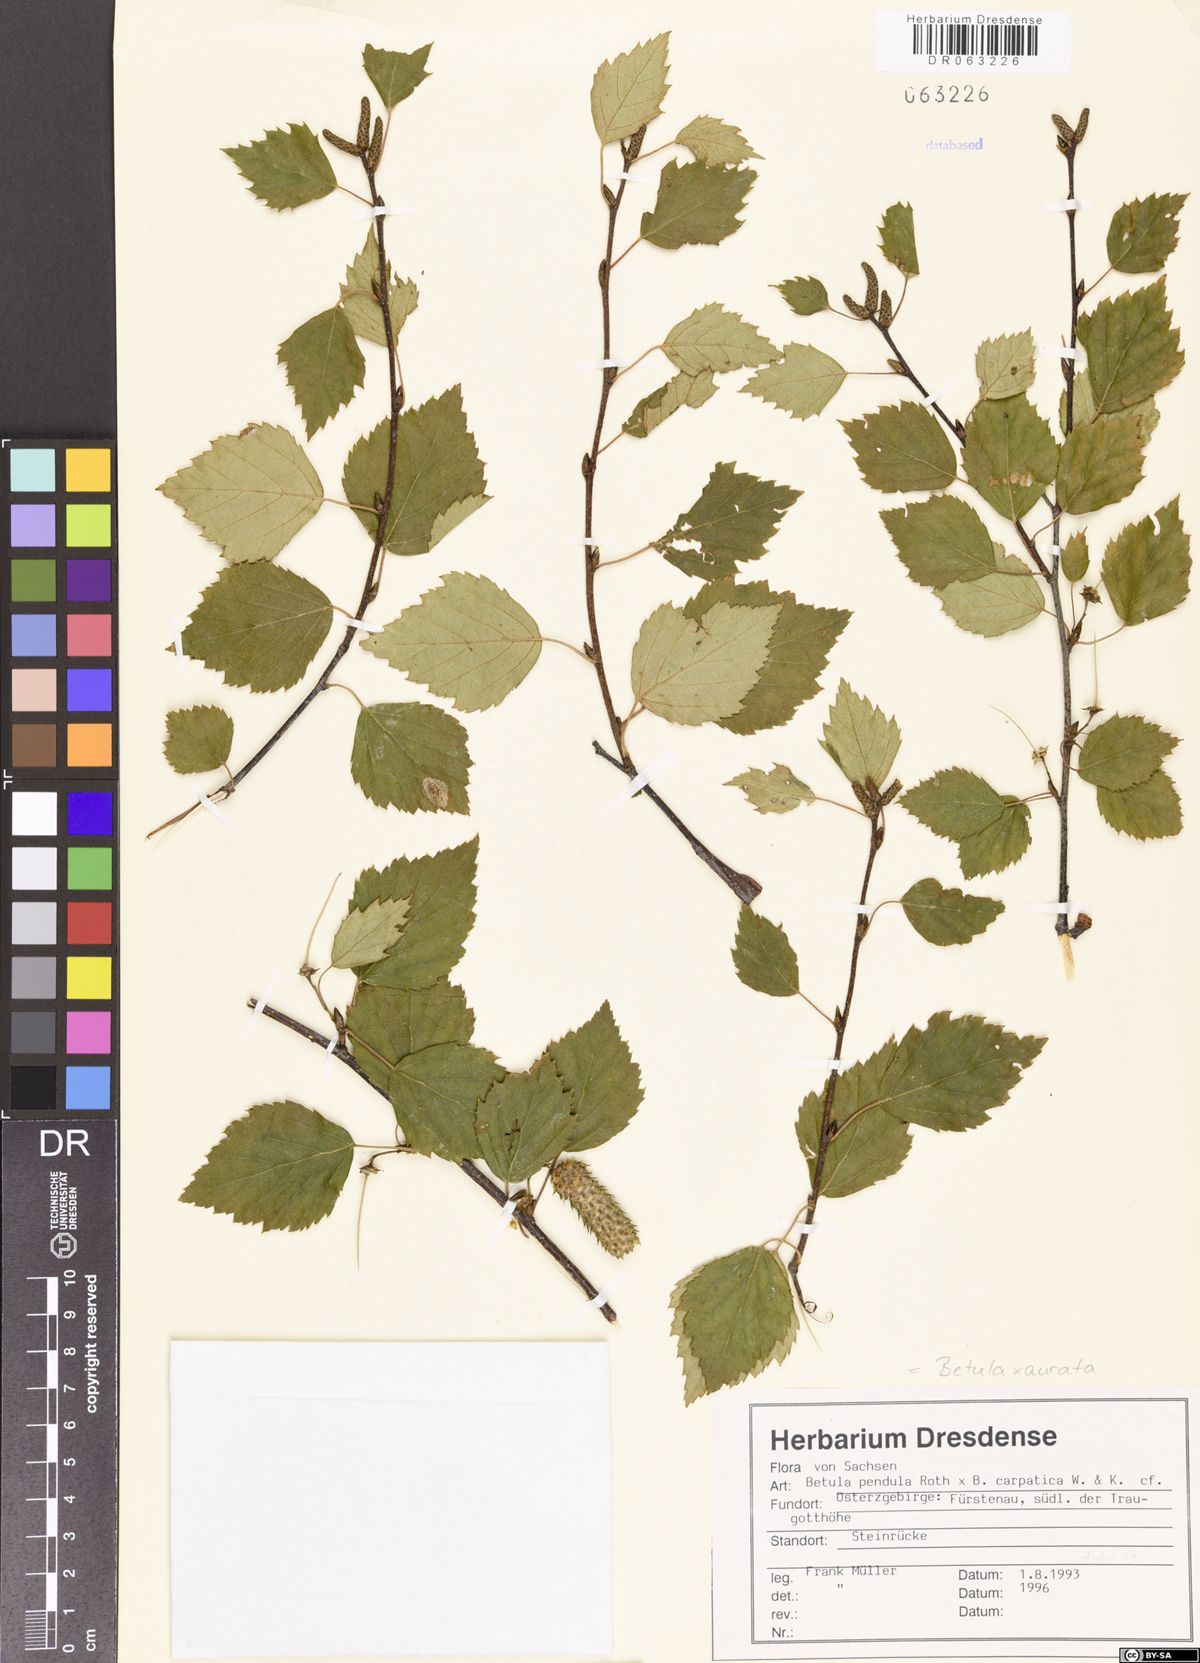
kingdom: Plantae
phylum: Tracheophyta
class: Magnoliopsida
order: Fagales
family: Betulaceae
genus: Betula
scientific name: Betula aurata
